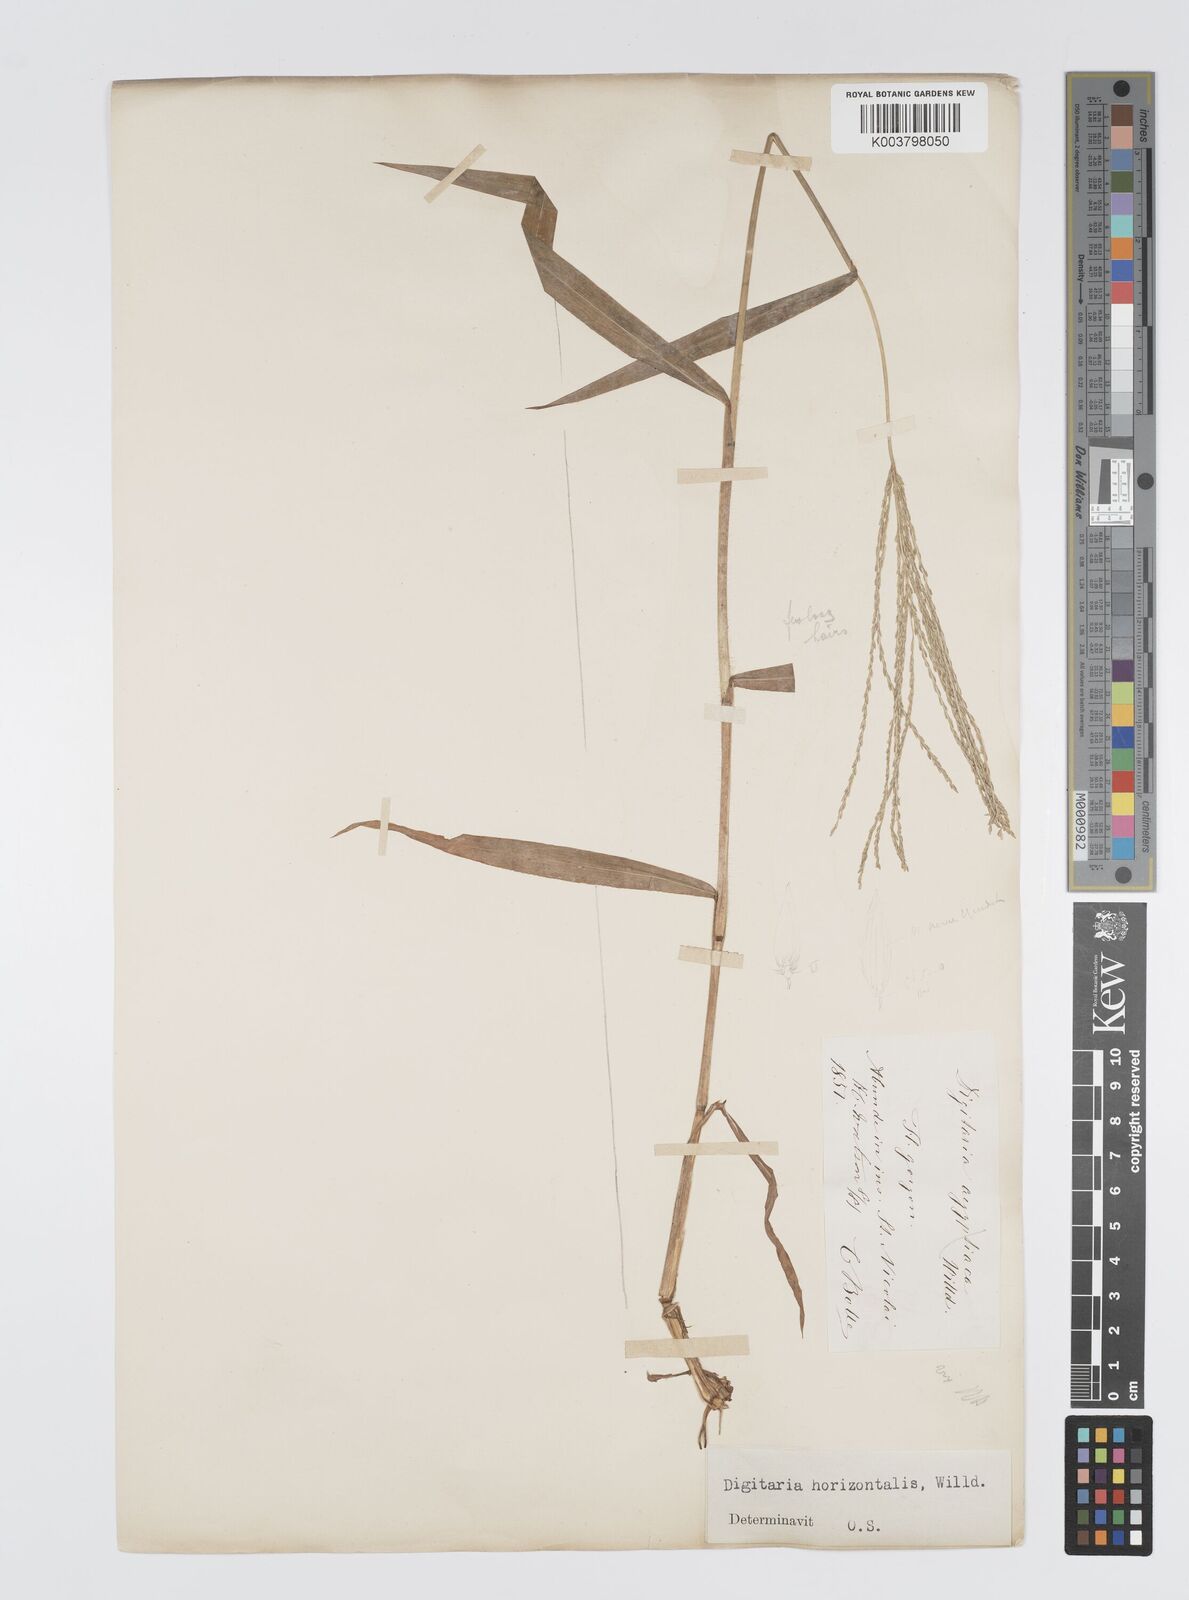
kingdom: Plantae
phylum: Tracheophyta
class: Liliopsida
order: Poales
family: Poaceae
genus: Digitaria
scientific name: Digitaria horizontalis
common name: Jamaican crabgrass
